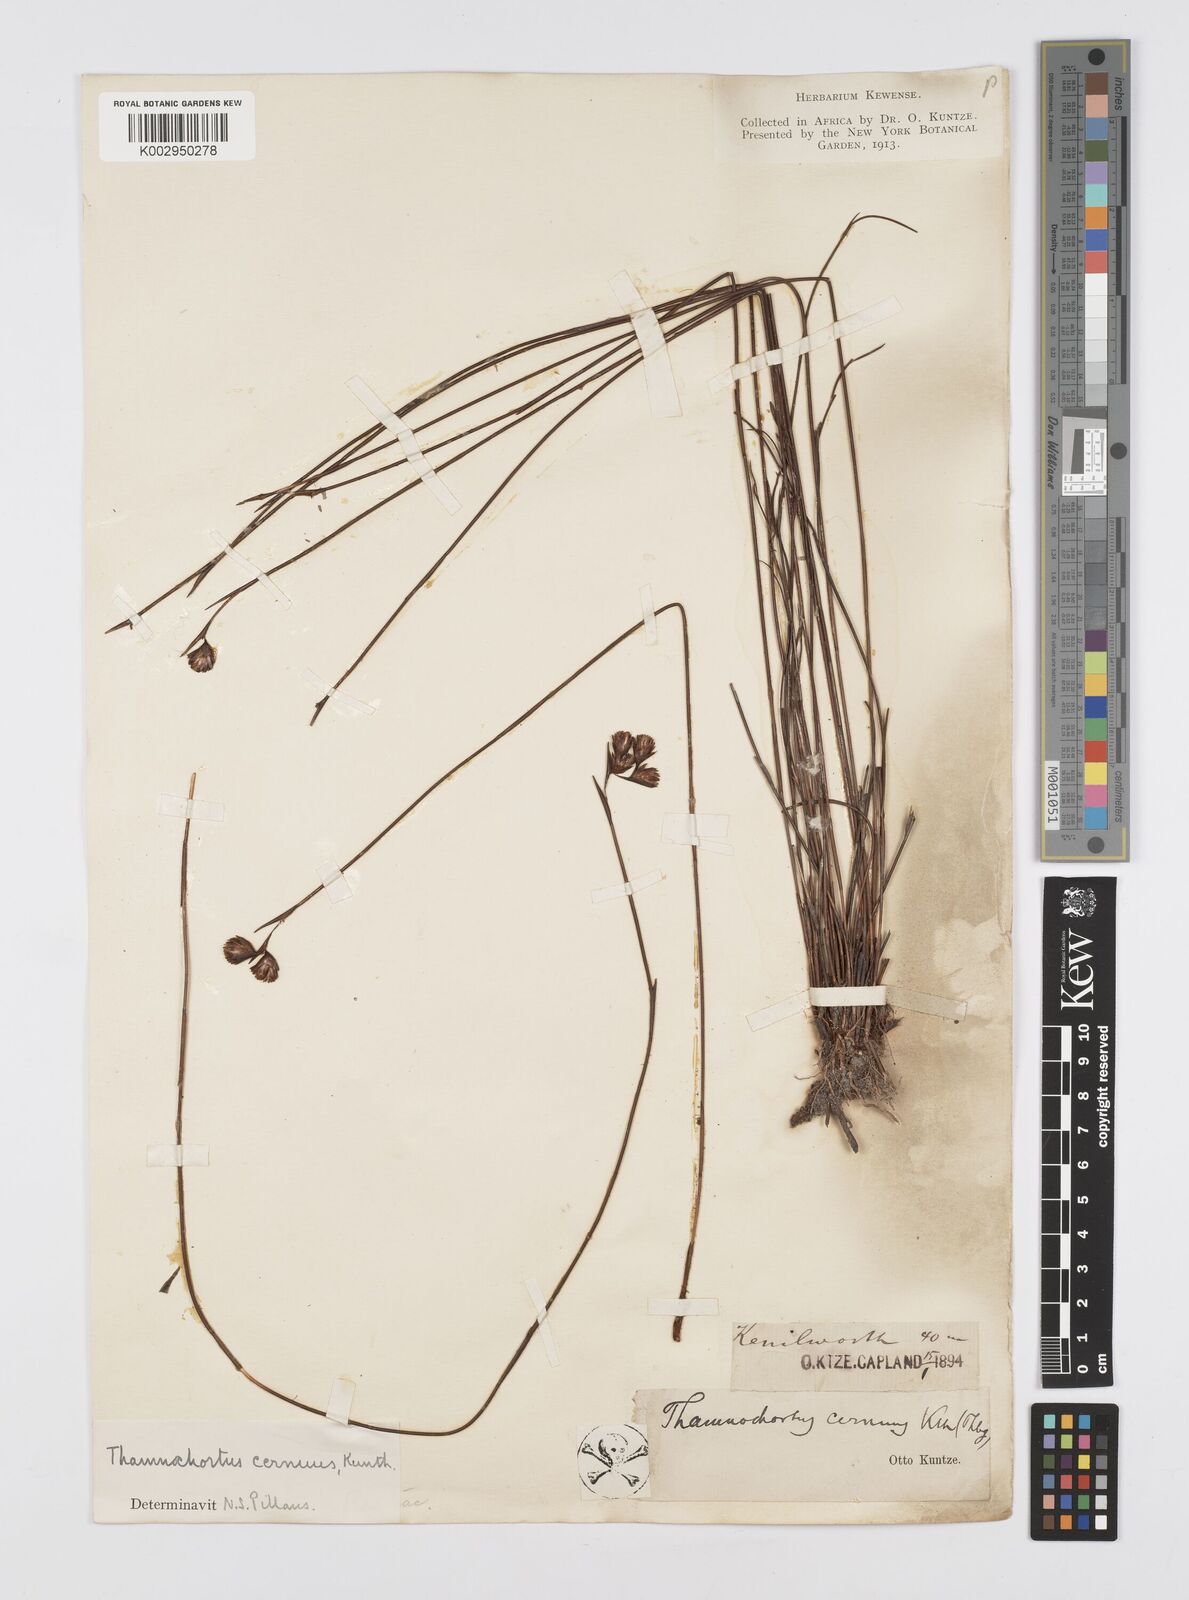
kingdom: Plantae
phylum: Tracheophyta
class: Liliopsida
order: Poales
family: Restionaceae
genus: Staberoha
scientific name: Staberoha cernua
